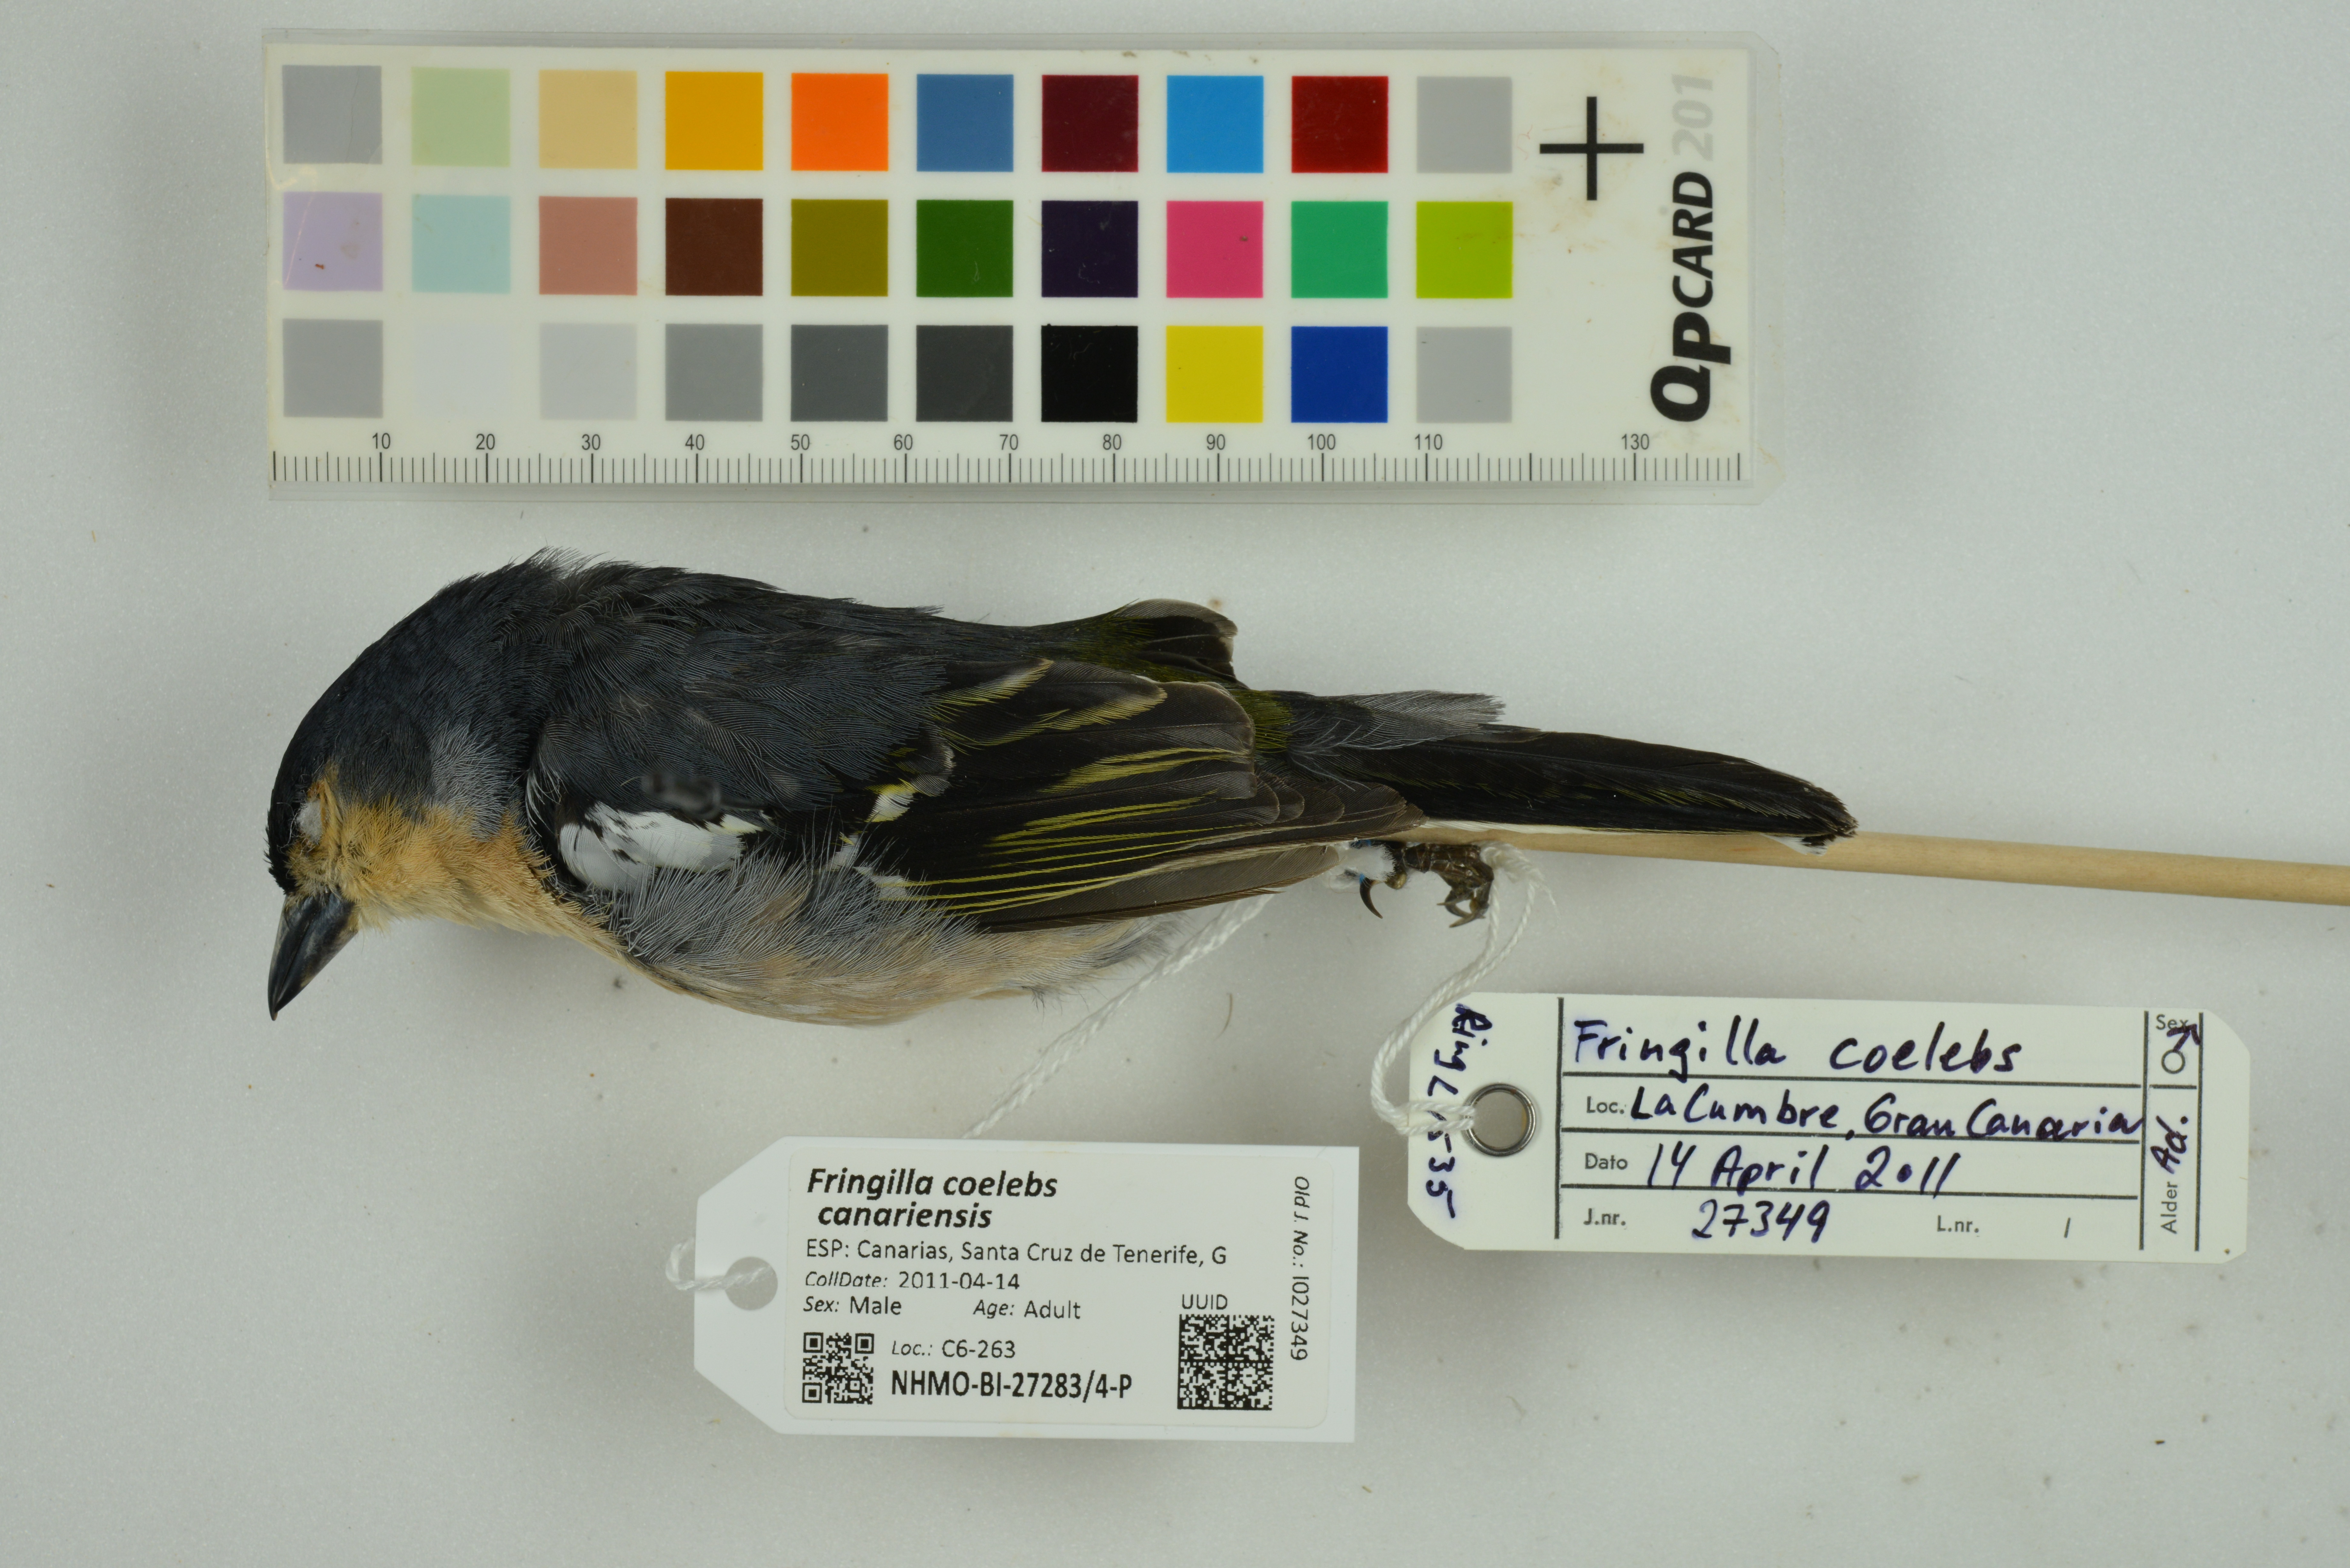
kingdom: Animalia
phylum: Chordata
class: Aves
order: Passeriformes
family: Fringillidae
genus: Fringilla
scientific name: Fringilla coelebs
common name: Common chaffinch
